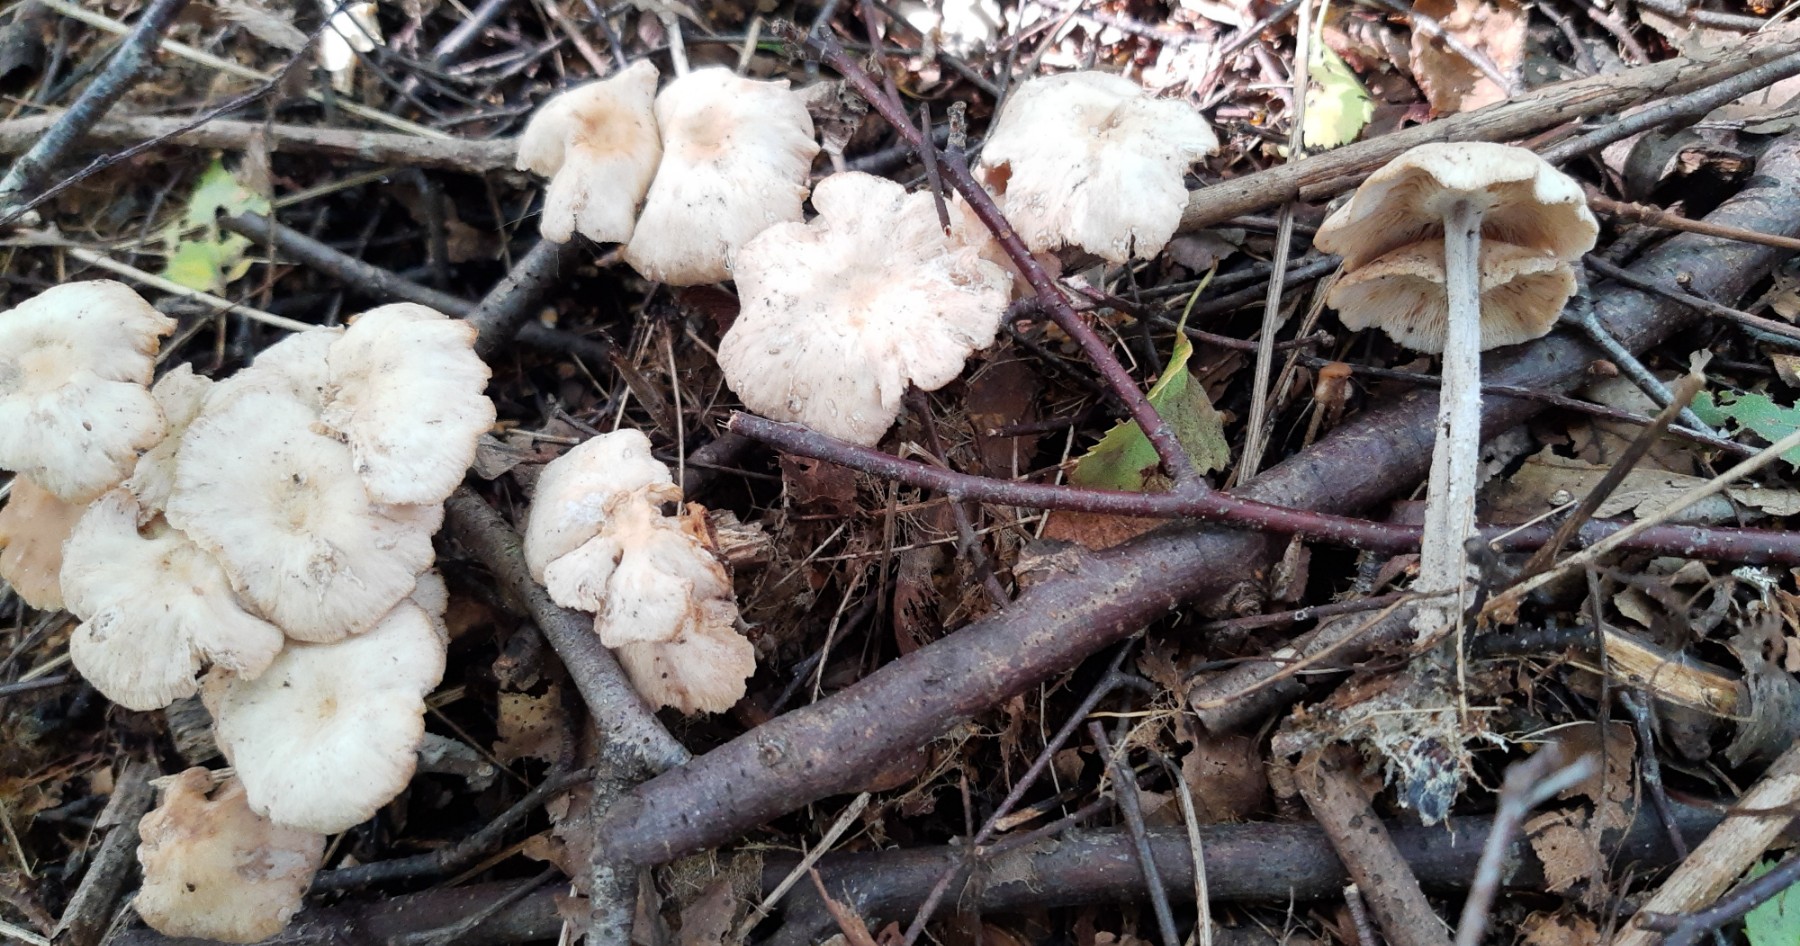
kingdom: Fungi
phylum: Basidiomycota
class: Agaricomycetes
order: Agaricales
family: Omphalotaceae
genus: Collybiopsis
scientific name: Collybiopsis confluens
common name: knippe-fladhat
